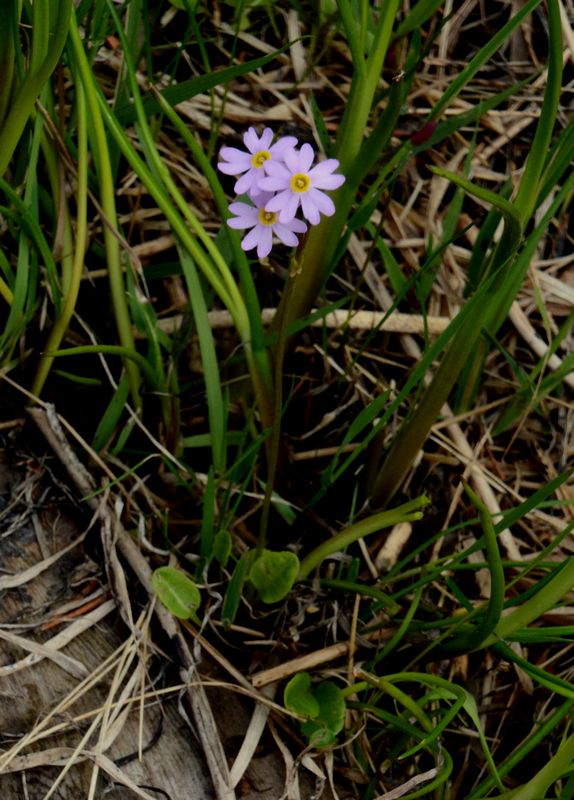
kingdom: Plantae
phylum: Tracheophyta
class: Magnoliopsida
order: Ericales
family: Primulaceae
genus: Primula
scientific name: Primula nutans
